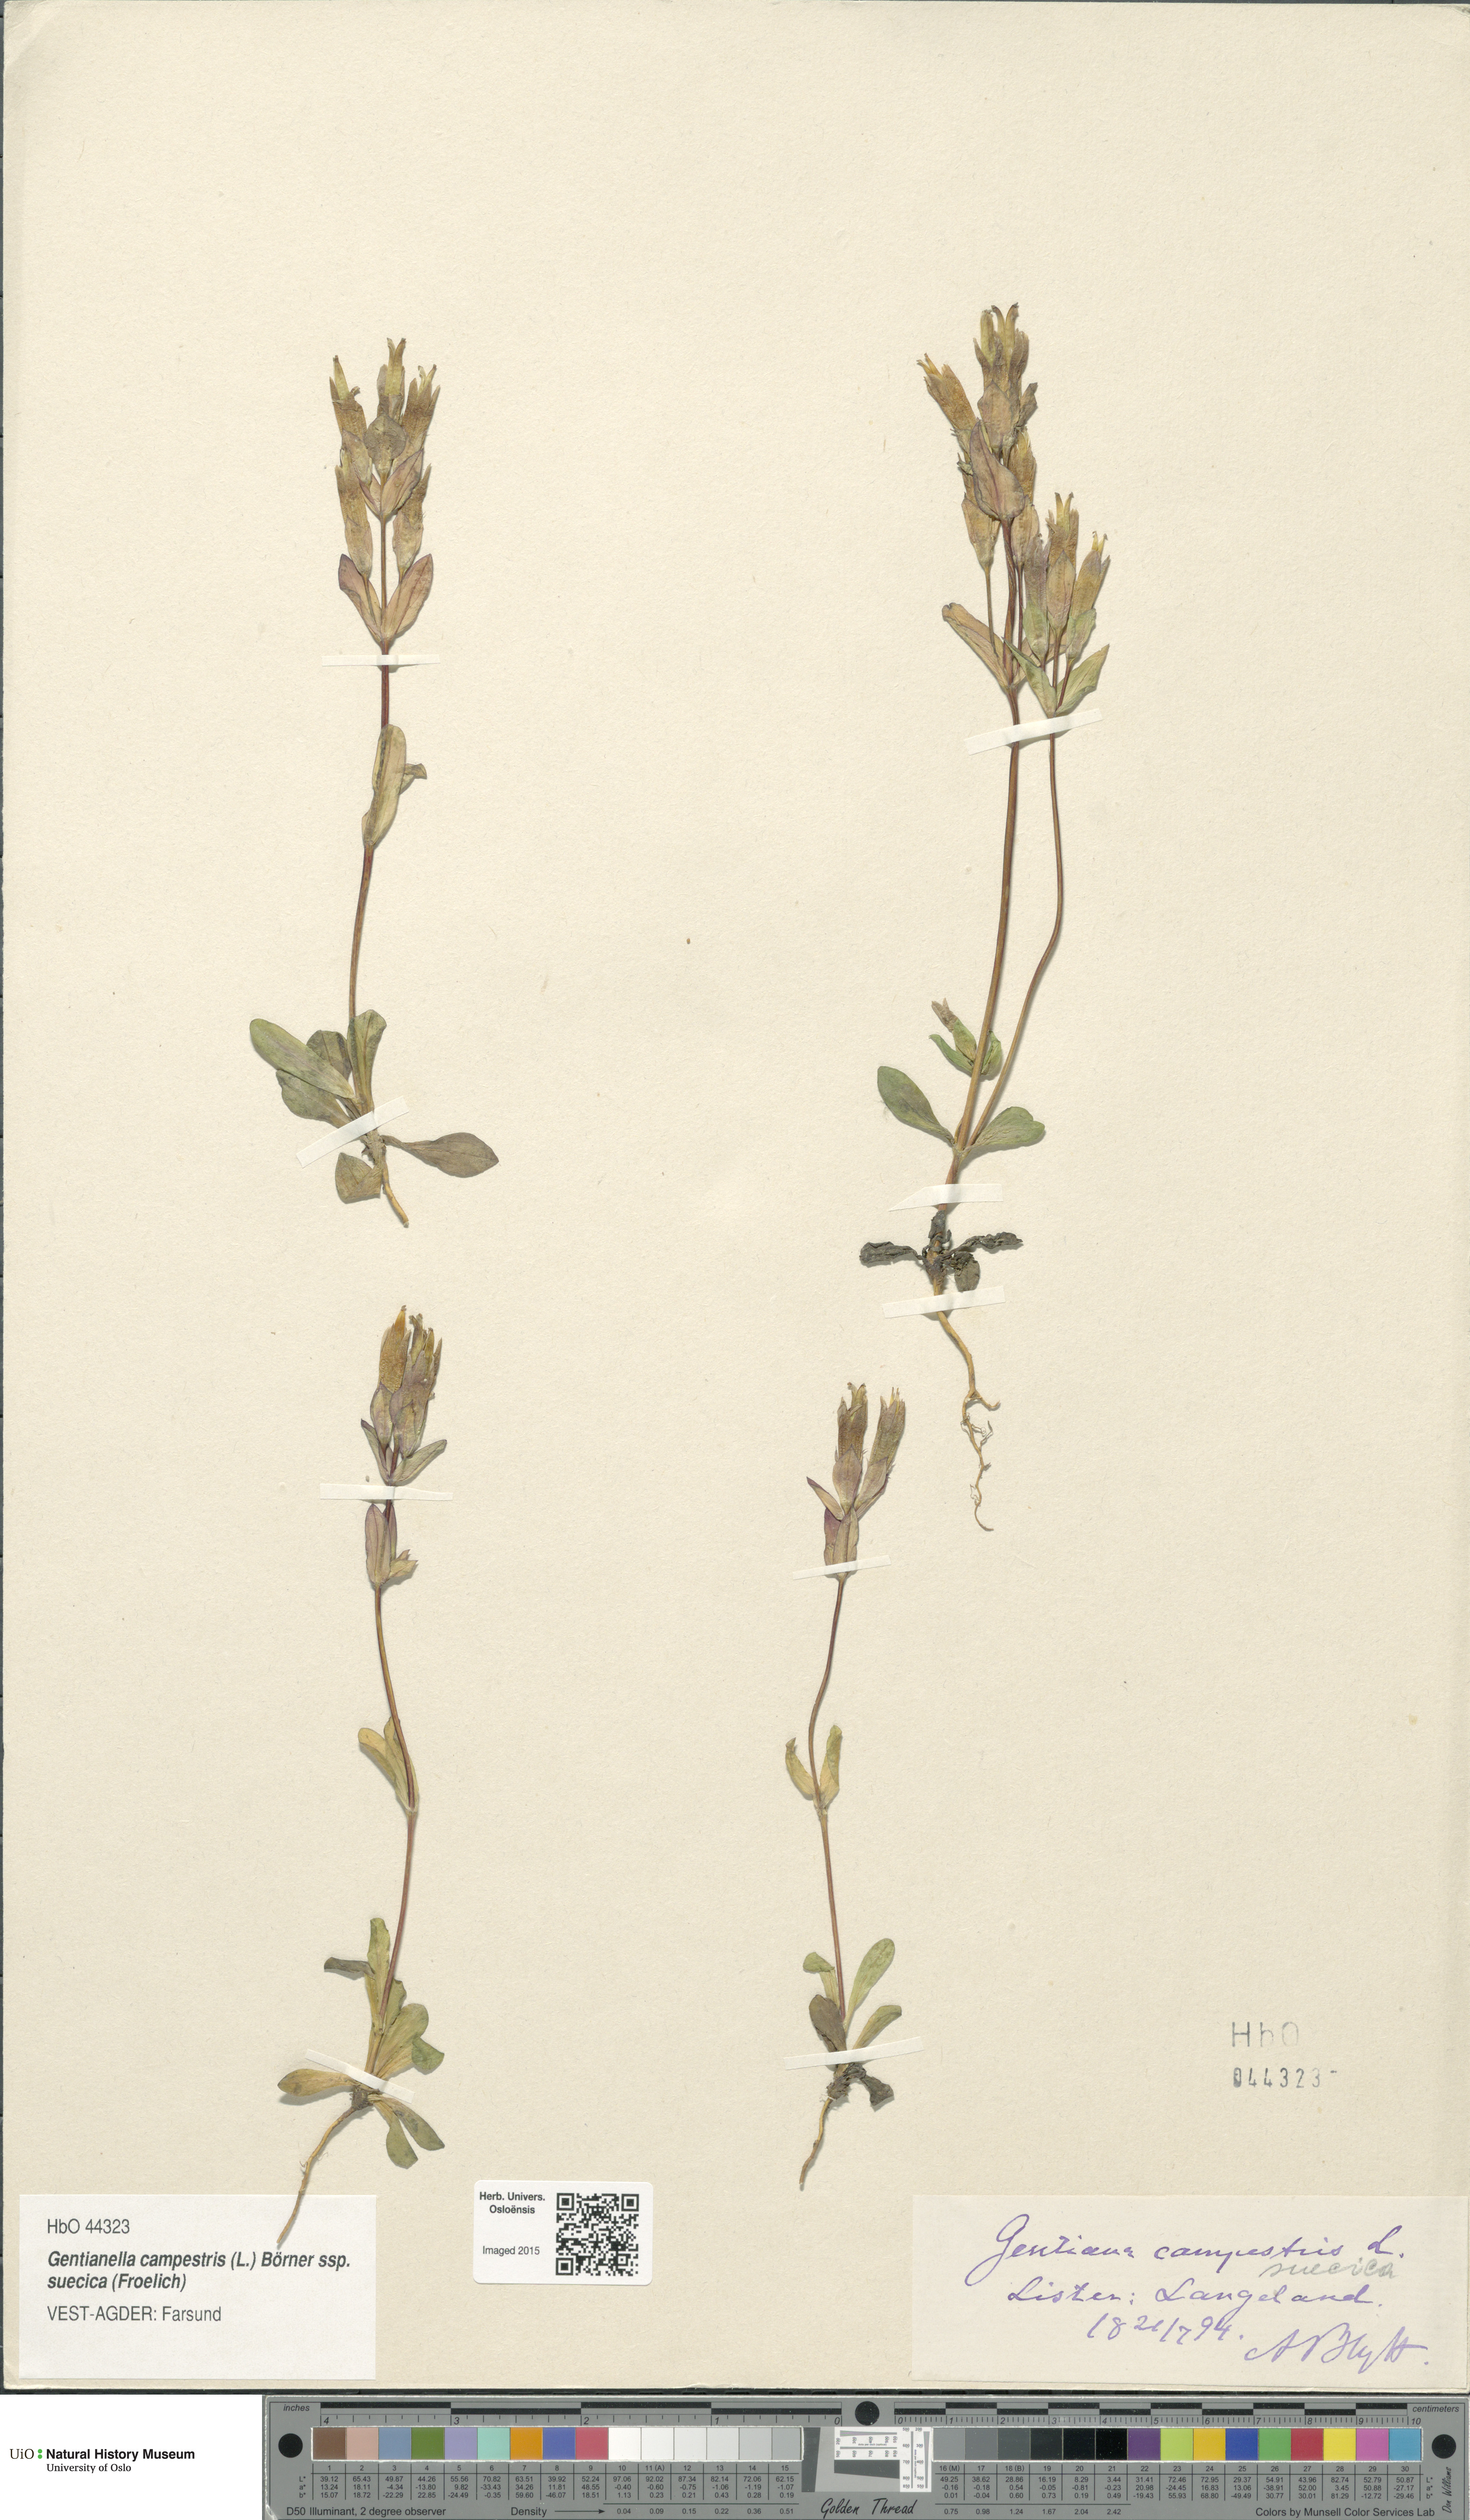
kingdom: Plantae
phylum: Tracheophyta
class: Magnoliopsida
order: Gentianales
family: Gentianaceae
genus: Gentianella
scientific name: Gentianella campestris
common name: Field gentian
